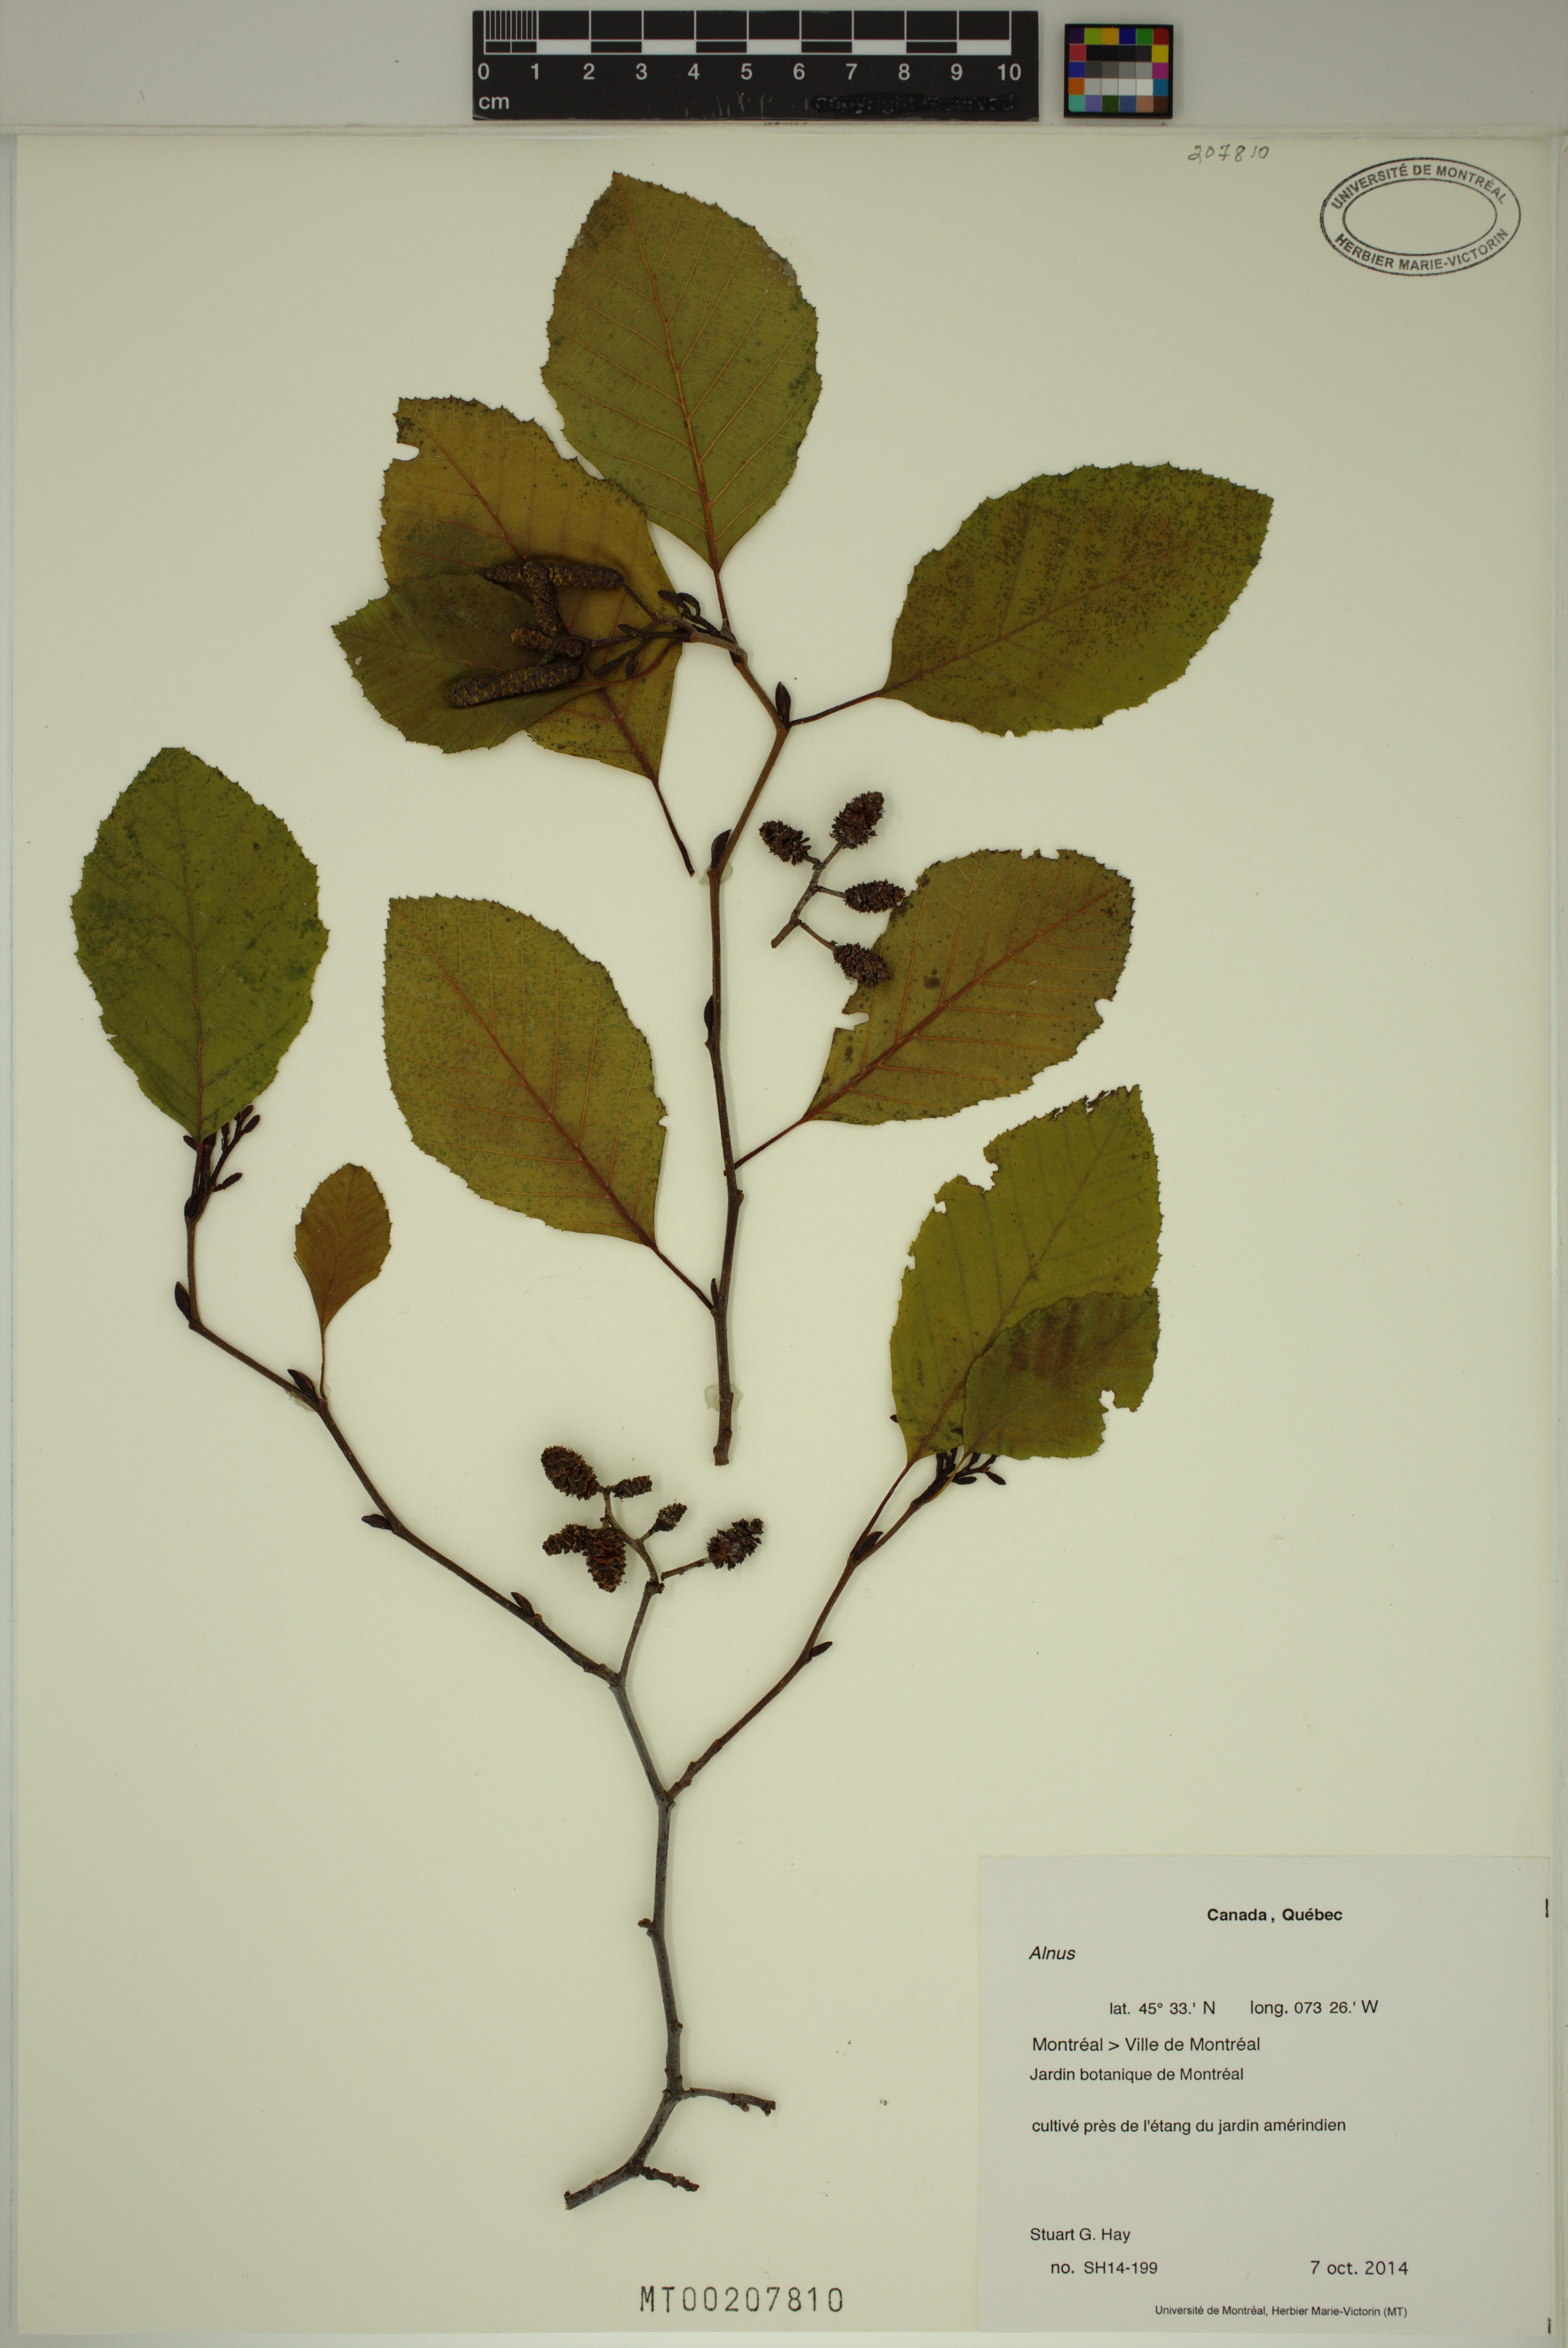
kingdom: Plantae
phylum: Tracheophyta
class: Magnoliopsida
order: Fagales
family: Betulaceae
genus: Alnus
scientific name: Alnus
